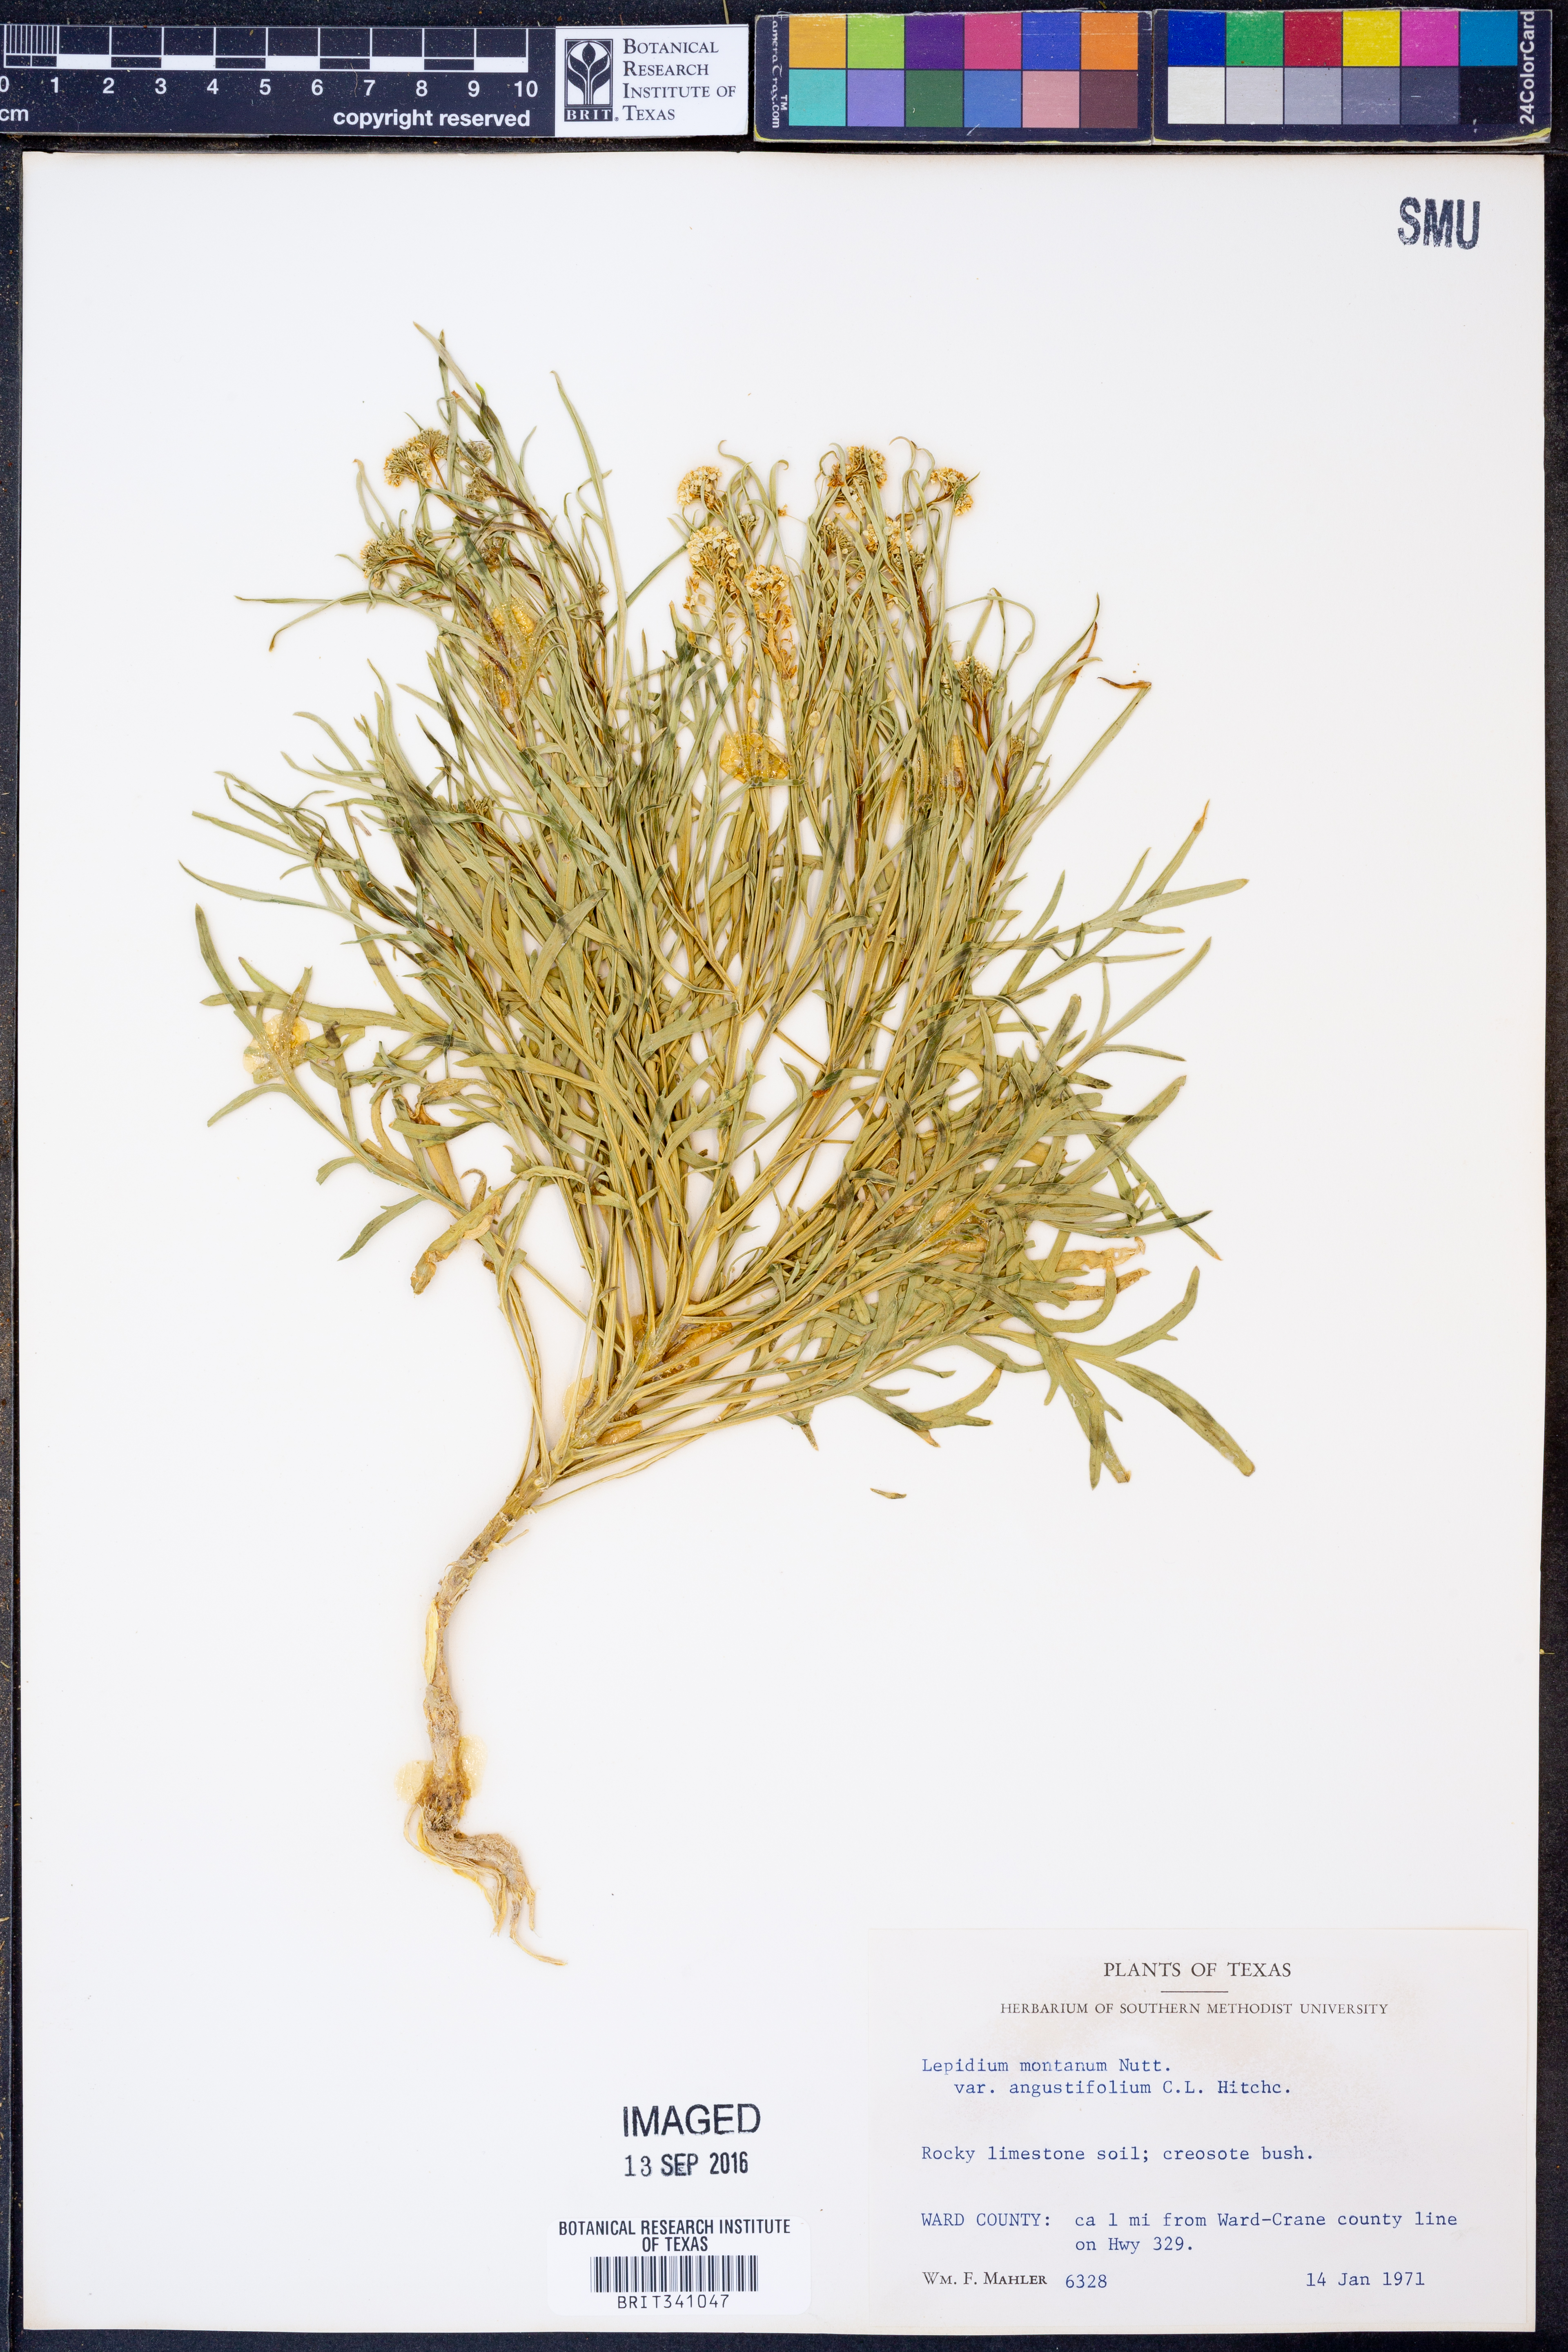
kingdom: Plantae
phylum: Tracheophyta
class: Magnoliopsida
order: Brassicales
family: Brassicaceae
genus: Lepidium
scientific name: Lepidium alyssoides
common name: Mesa pepperweed
